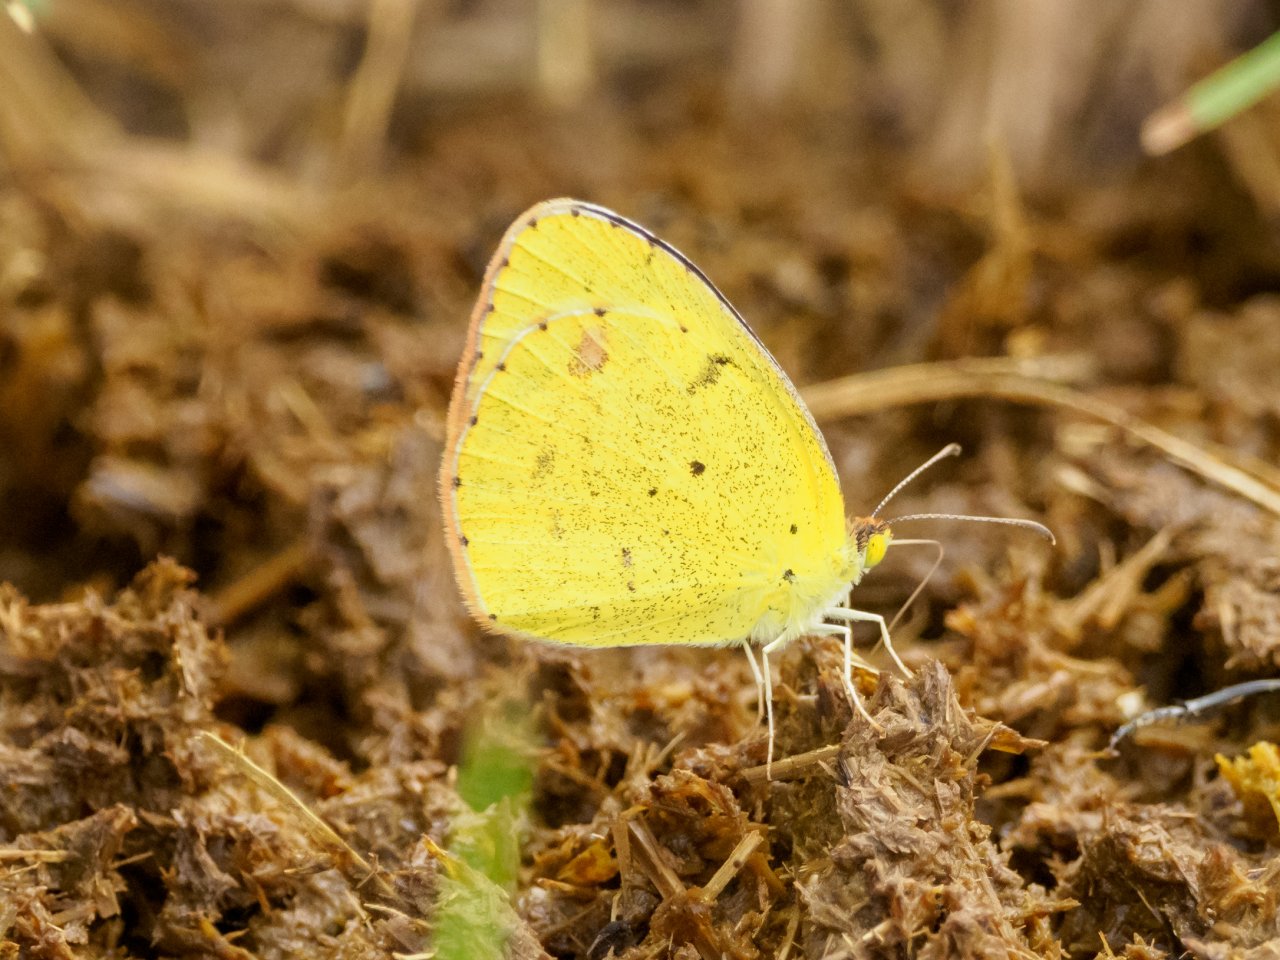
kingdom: Animalia
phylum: Arthropoda
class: Insecta
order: Lepidoptera
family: Pieridae
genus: Pyrisitia
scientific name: Pyrisitia lisa
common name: Little Yellow
